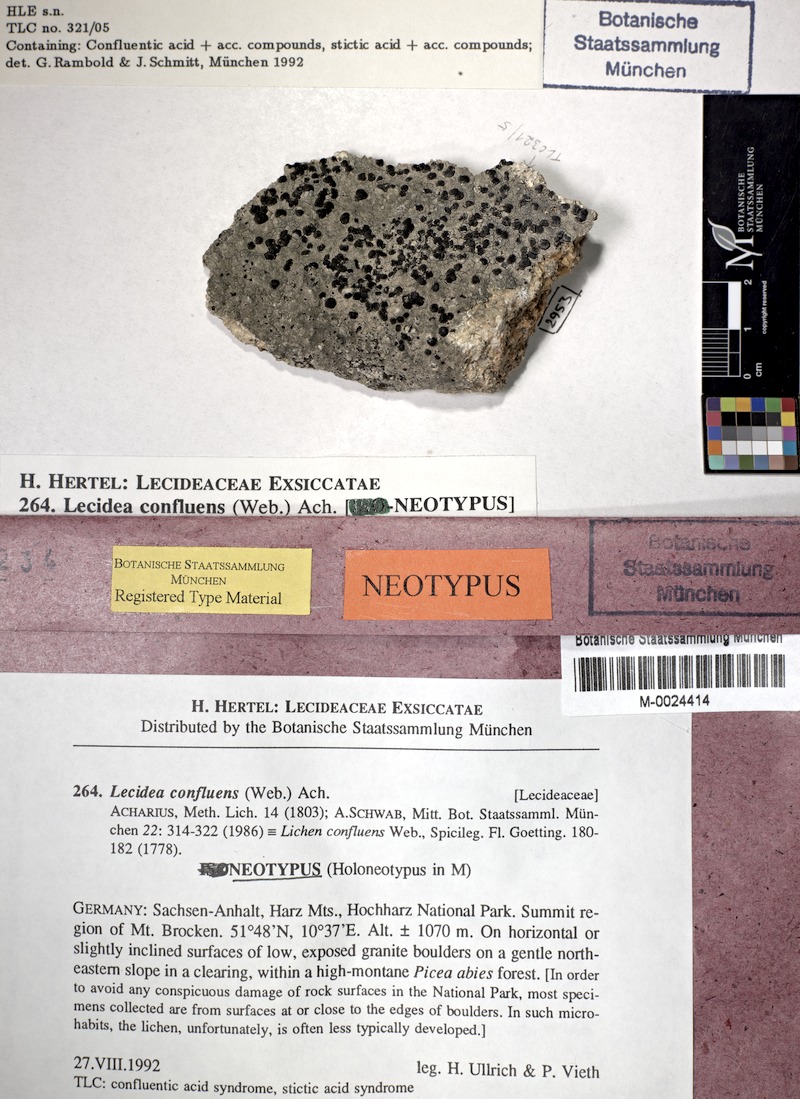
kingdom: Fungi
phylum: Ascomycota
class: Lecanoromycetes
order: Lecideales
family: Lecideaceae
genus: Lecidea
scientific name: Lecidea confluens
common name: Confluent disc lichen
